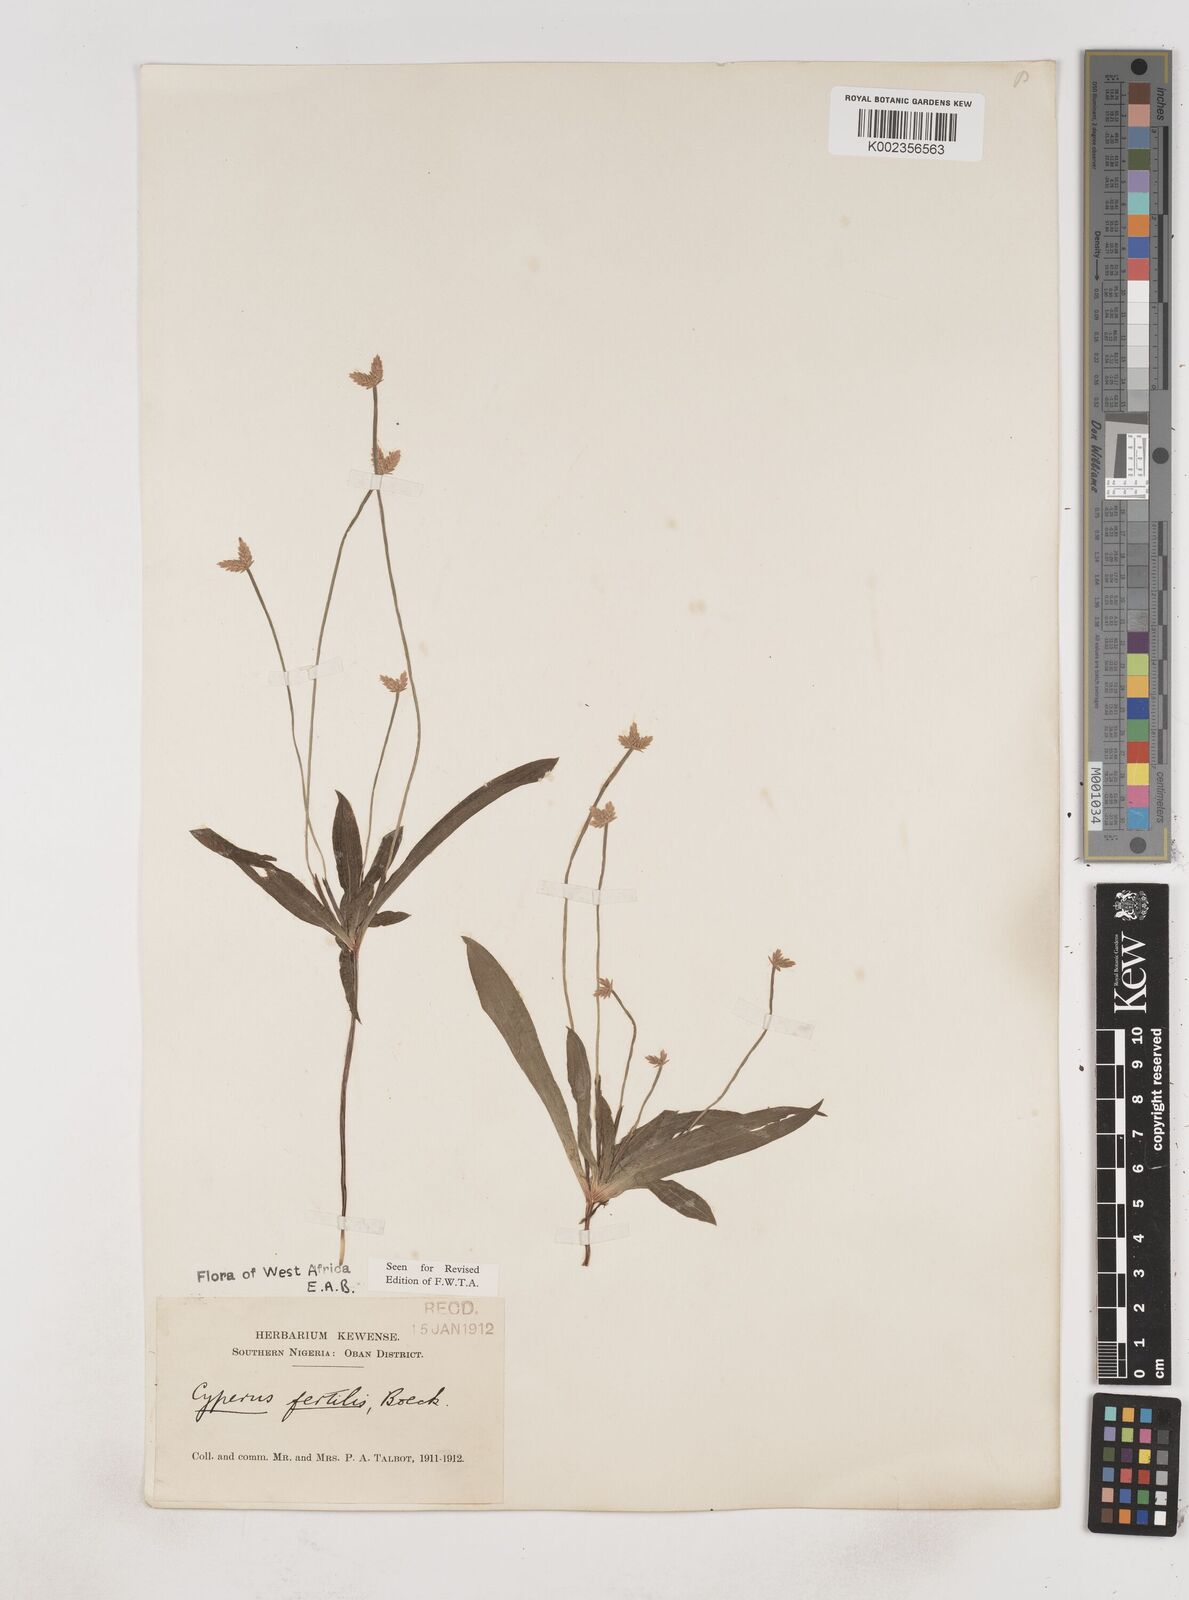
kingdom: Plantae
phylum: Tracheophyta
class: Liliopsida
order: Poales
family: Cyperaceae
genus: Cyperus
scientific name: Cyperus fertilis
